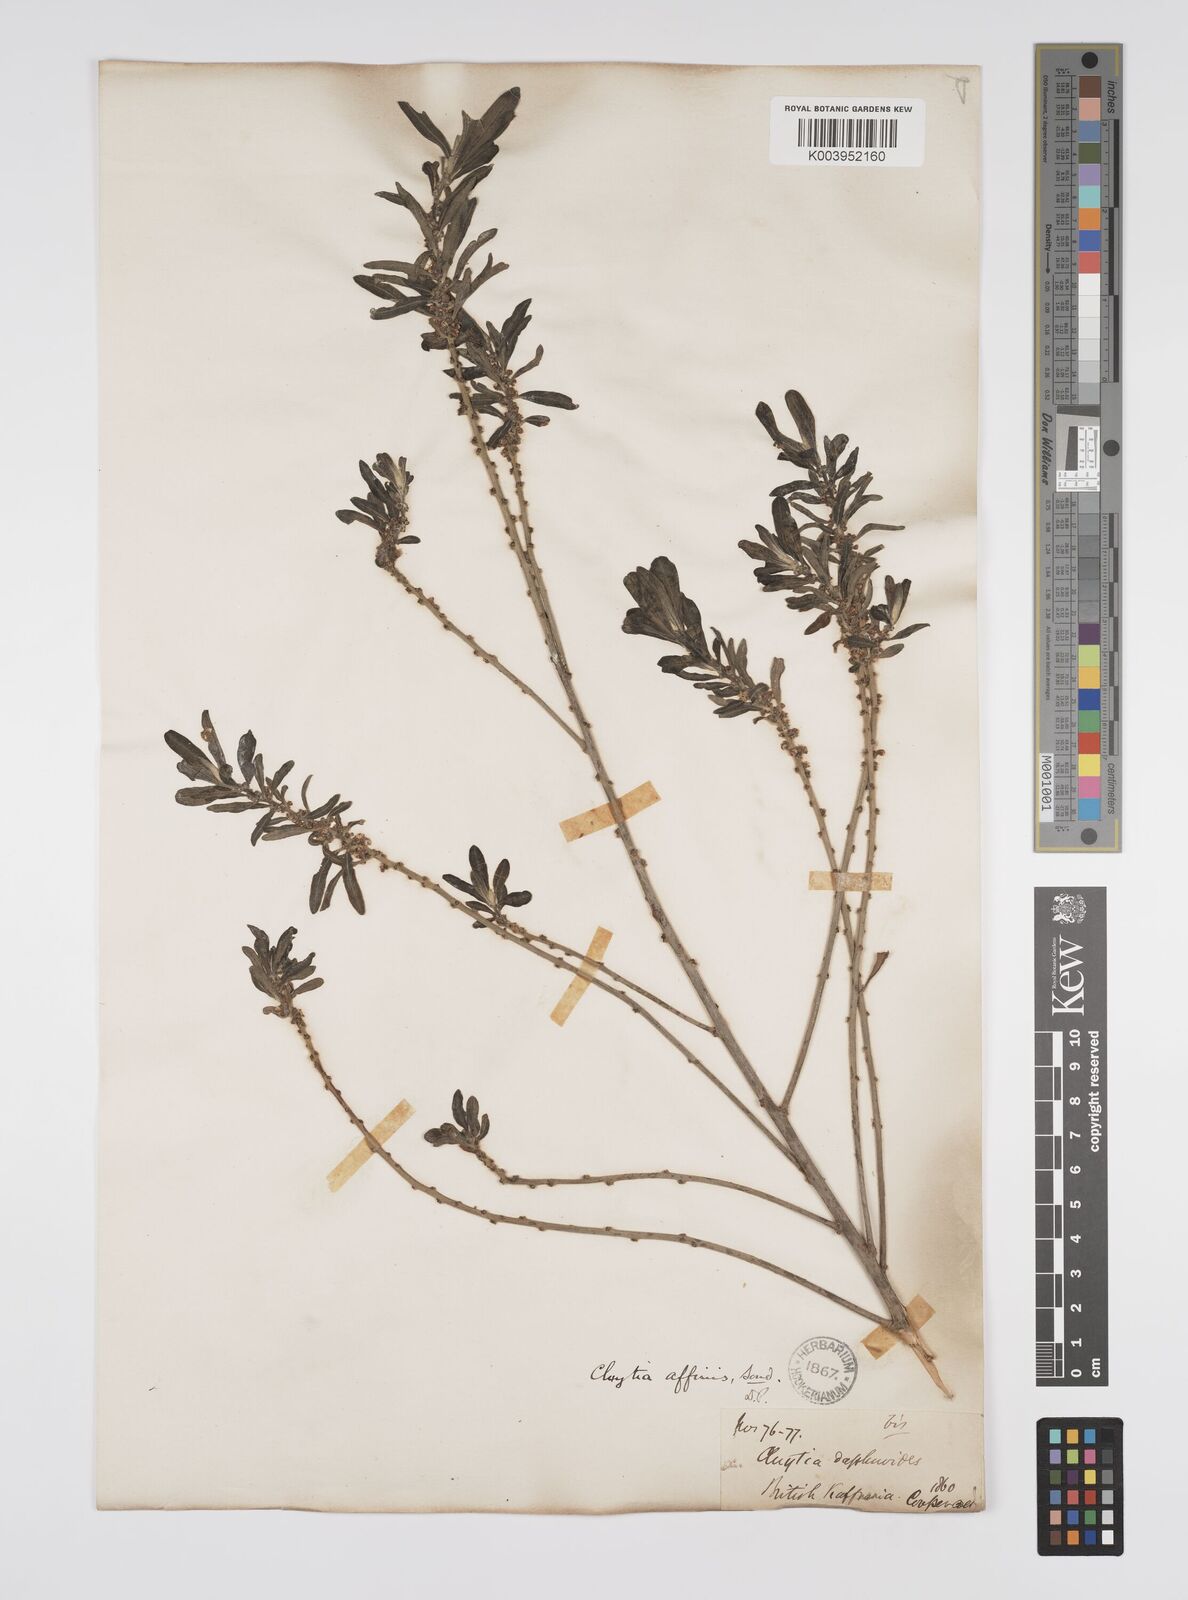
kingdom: Plantae
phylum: Tracheophyta
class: Magnoliopsida
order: Malpighiales
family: Peraceae
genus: Clutia
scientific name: Clutia affinis
